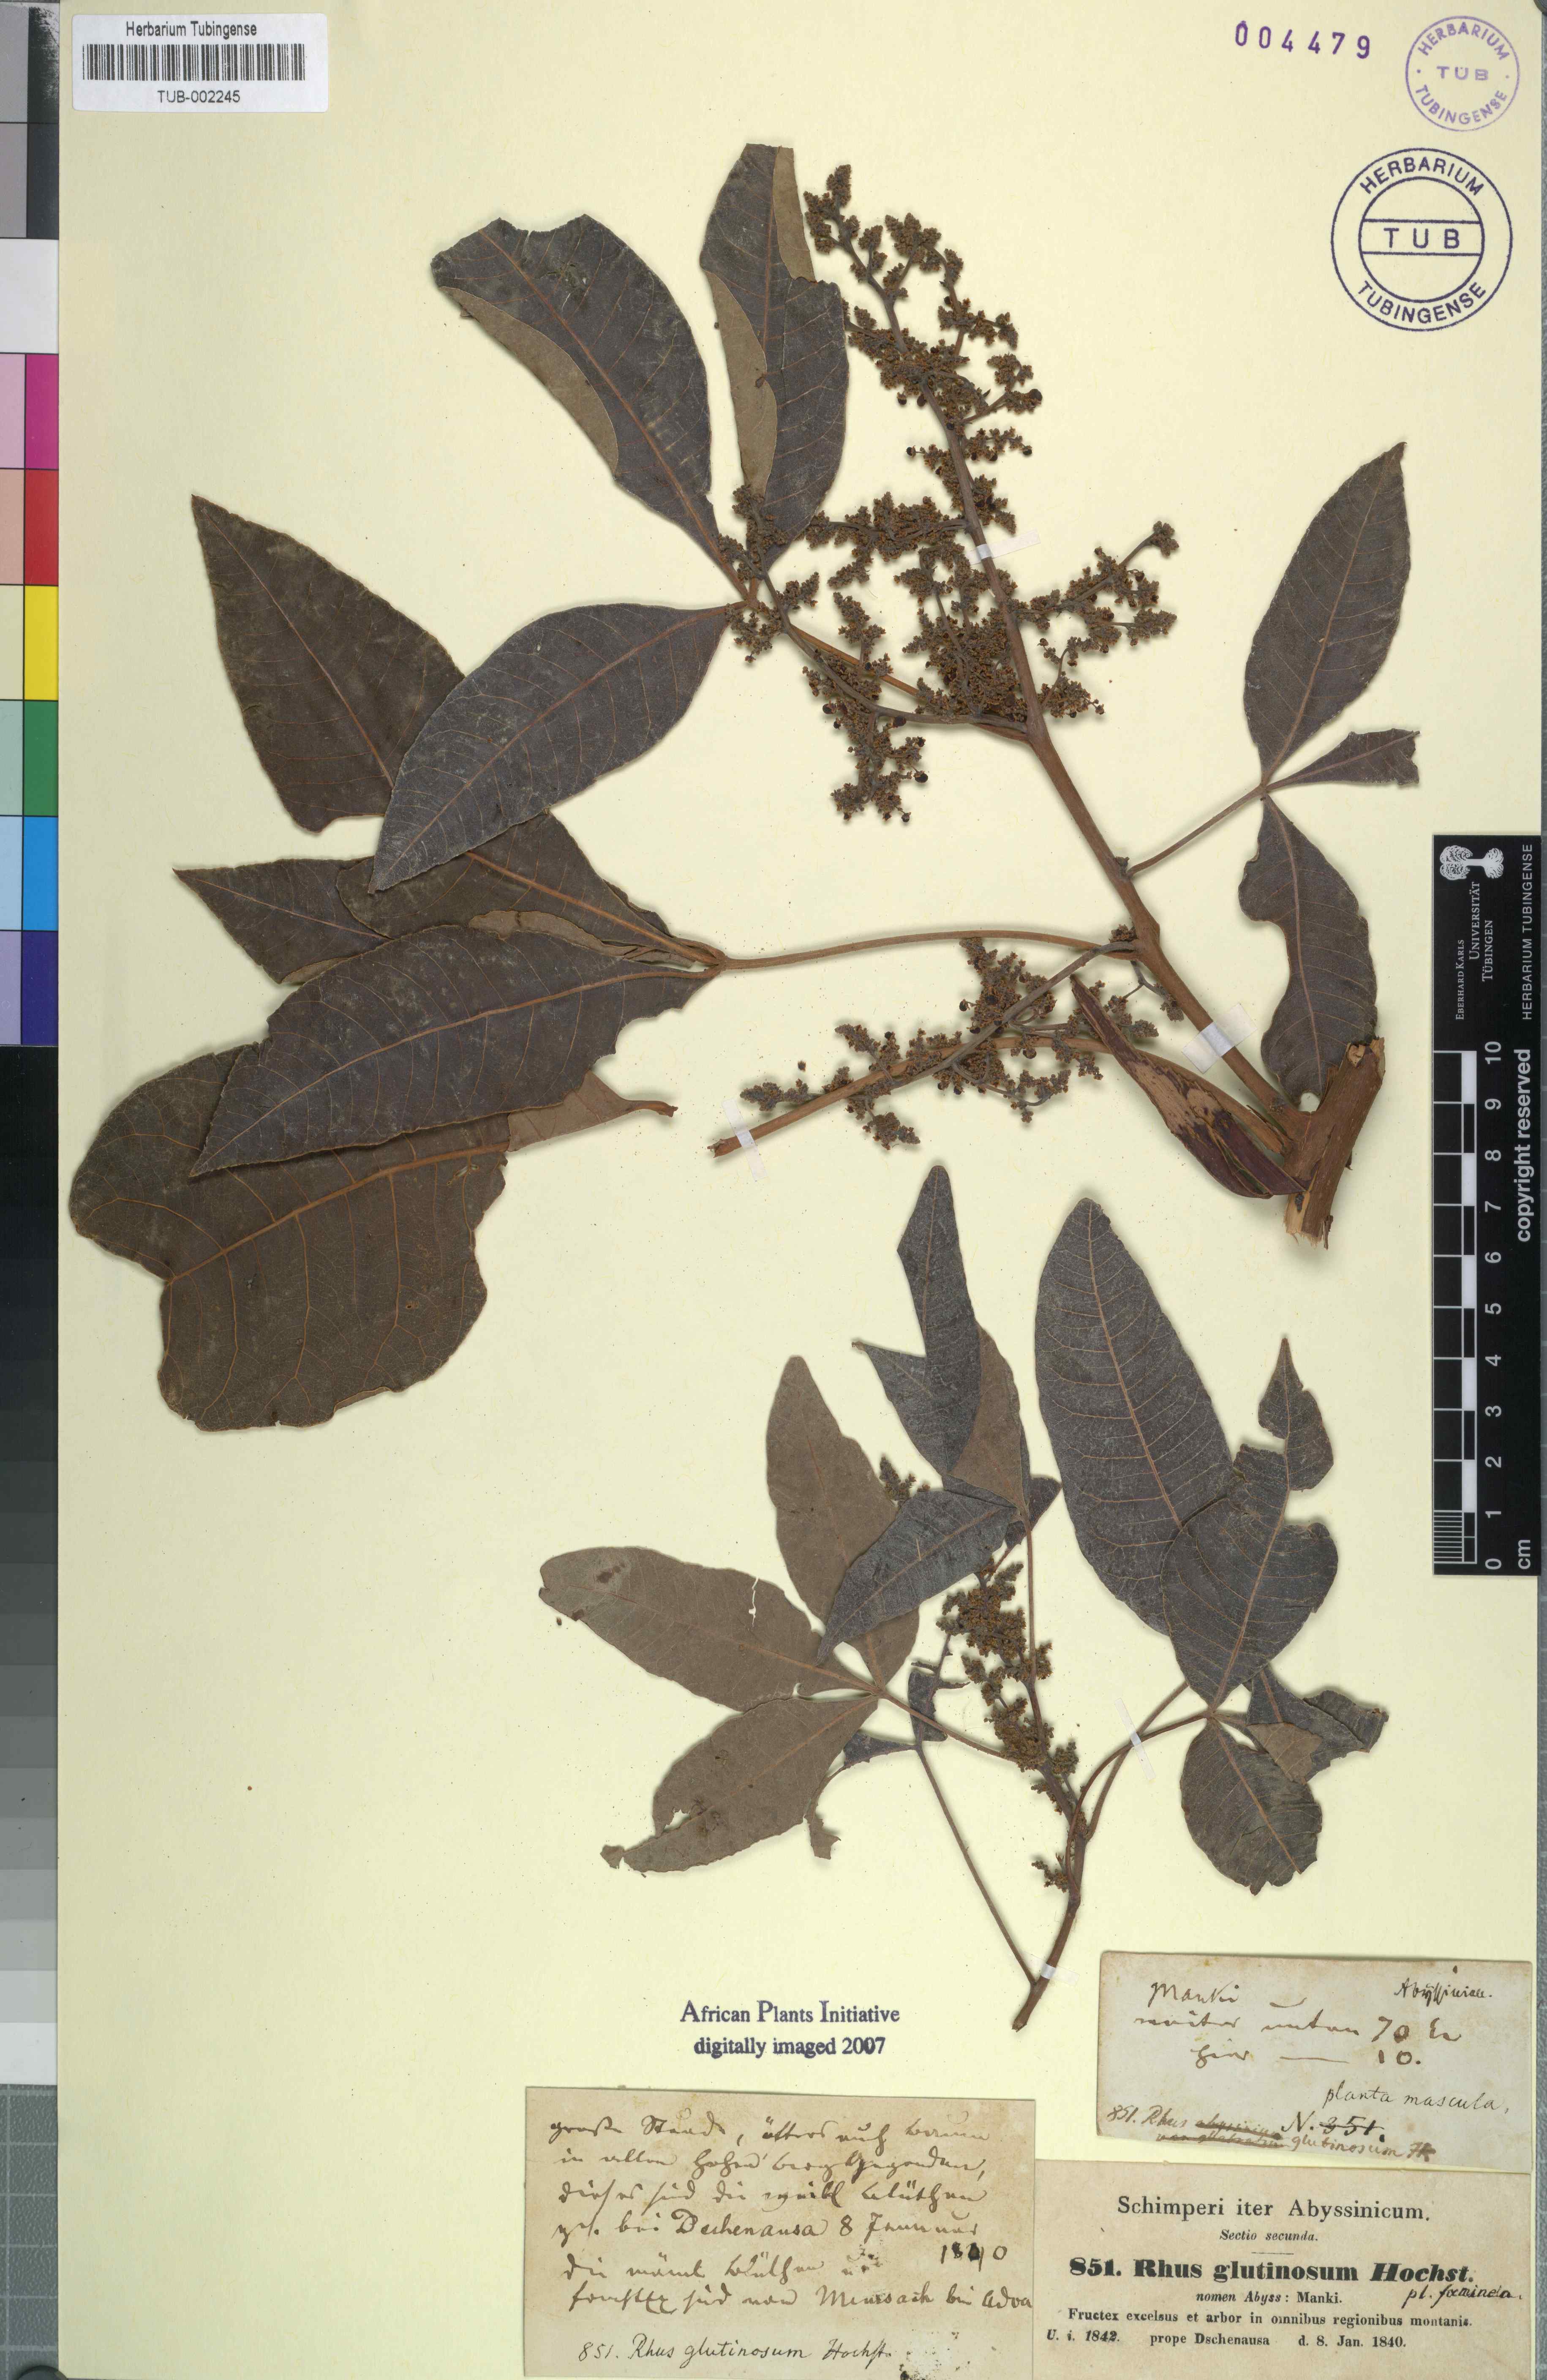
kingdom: Plantae
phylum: Tracheophyta
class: Magnoliopsida
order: Sapindales
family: Anacardiaceae
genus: Searsia
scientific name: Searsia glutinosa
